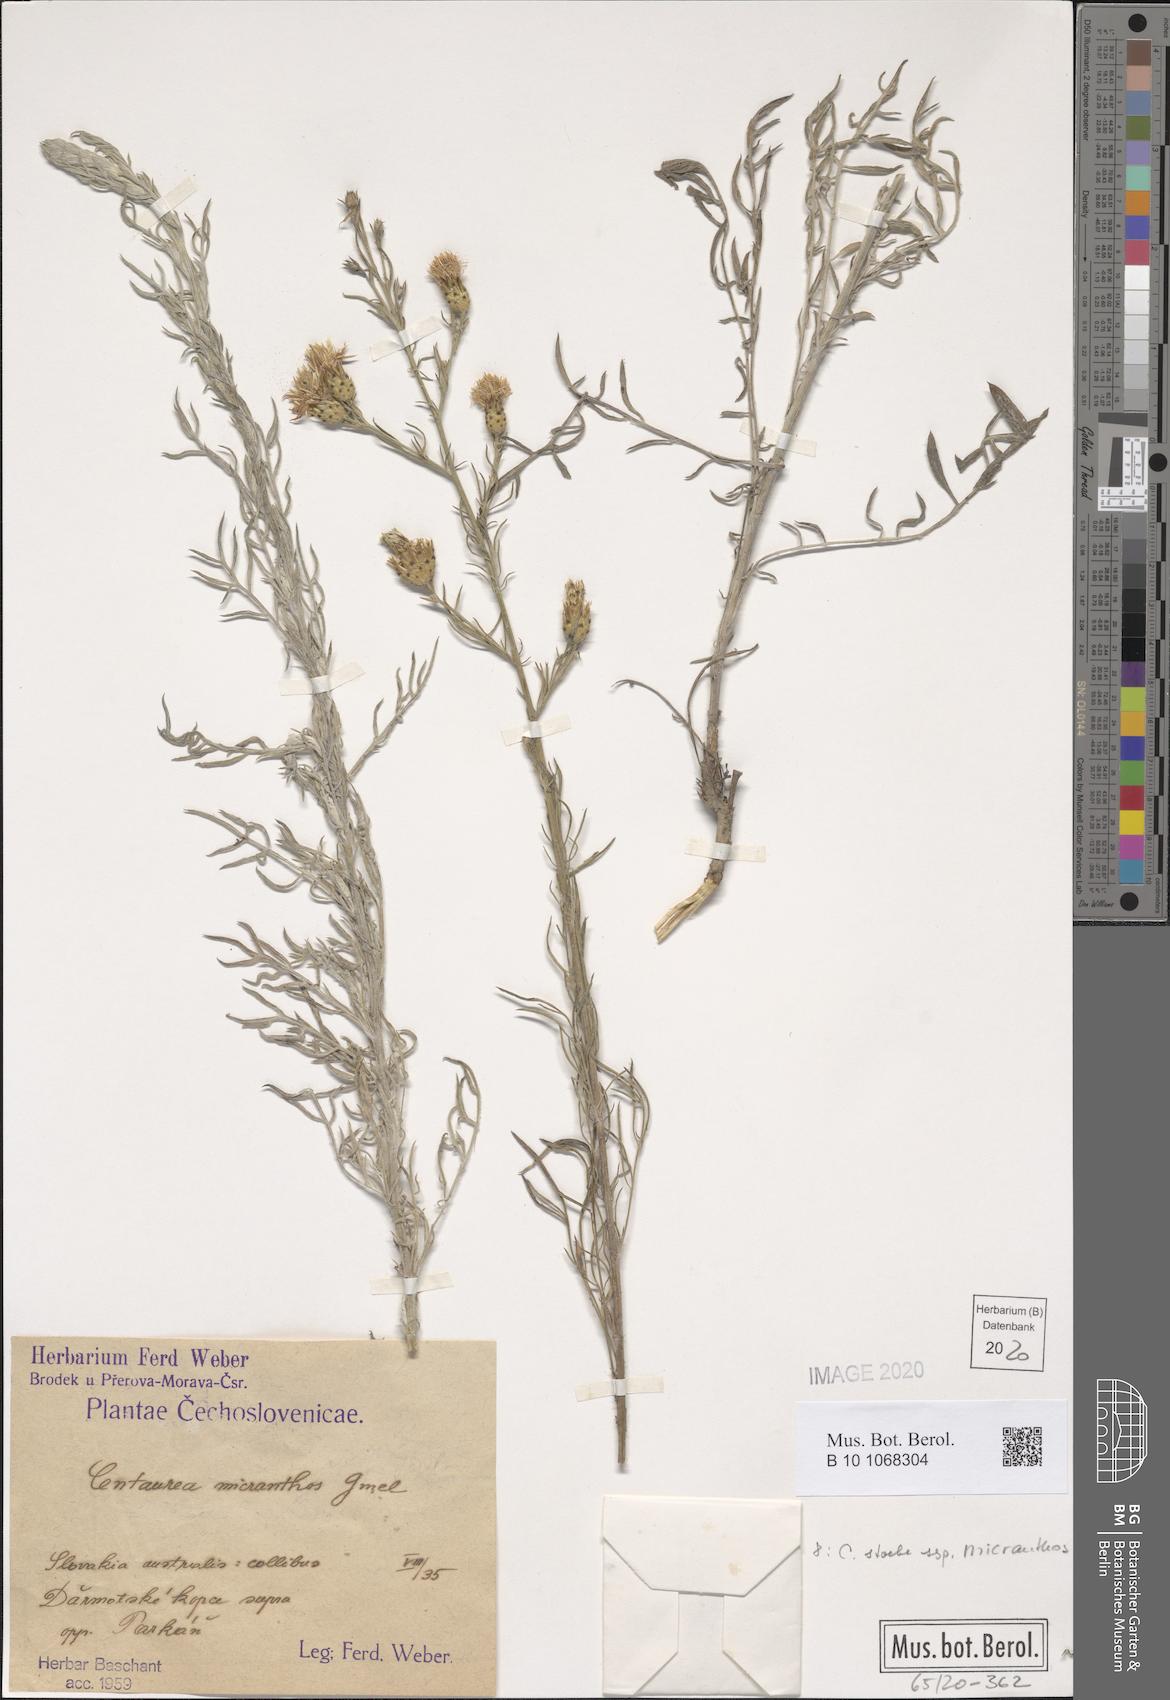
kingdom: Plantae
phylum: Tracheophyta
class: Magnoliopsida
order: Asterales
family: Asteraceae
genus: Centaurea
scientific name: Centaurea australis
